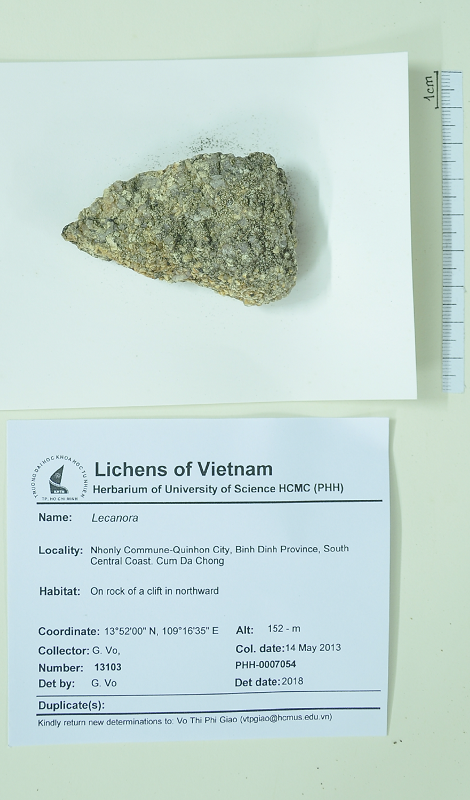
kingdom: Fungi
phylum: Ascomycota
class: Lecanoromycetes
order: Lecanorales
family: Lecanoraceae
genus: Lecanora
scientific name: Lecanora
